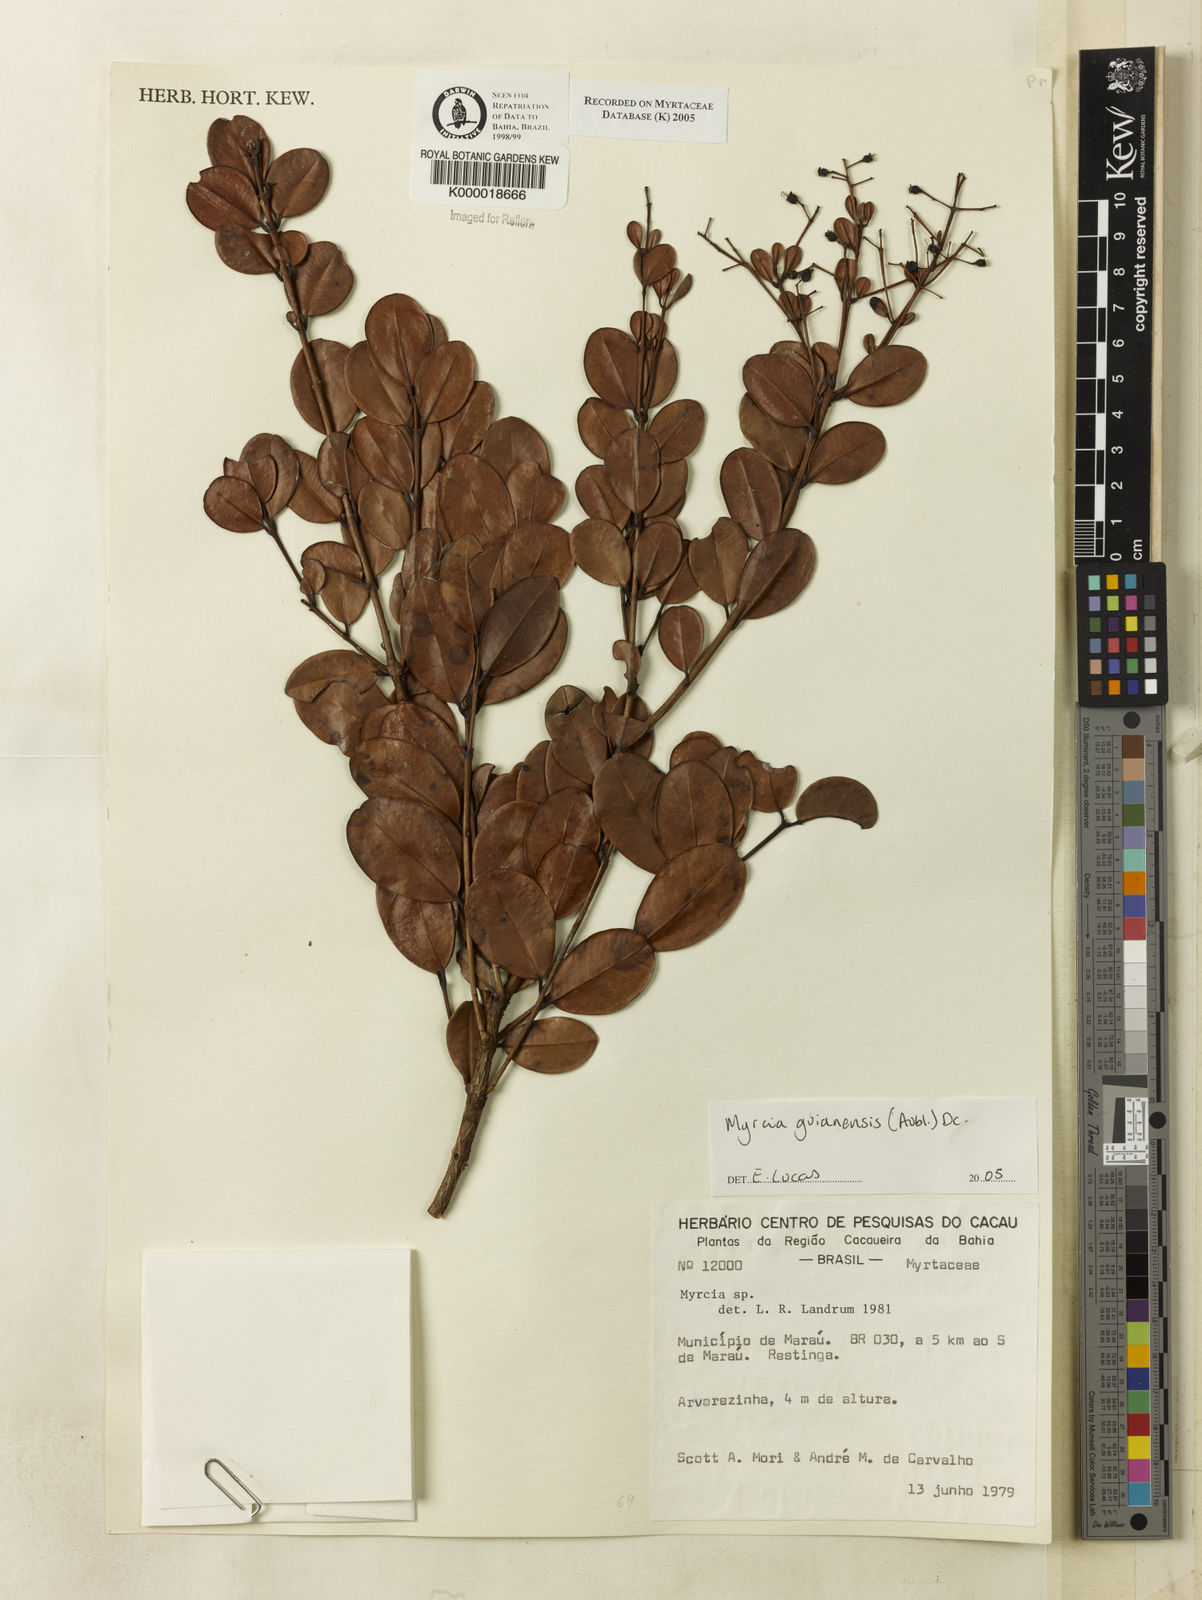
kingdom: Plantae
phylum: Tracheophyta
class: Magnoliopsida
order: Myrtales
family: Myrtaceae
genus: Myrcia
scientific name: Myrcia
